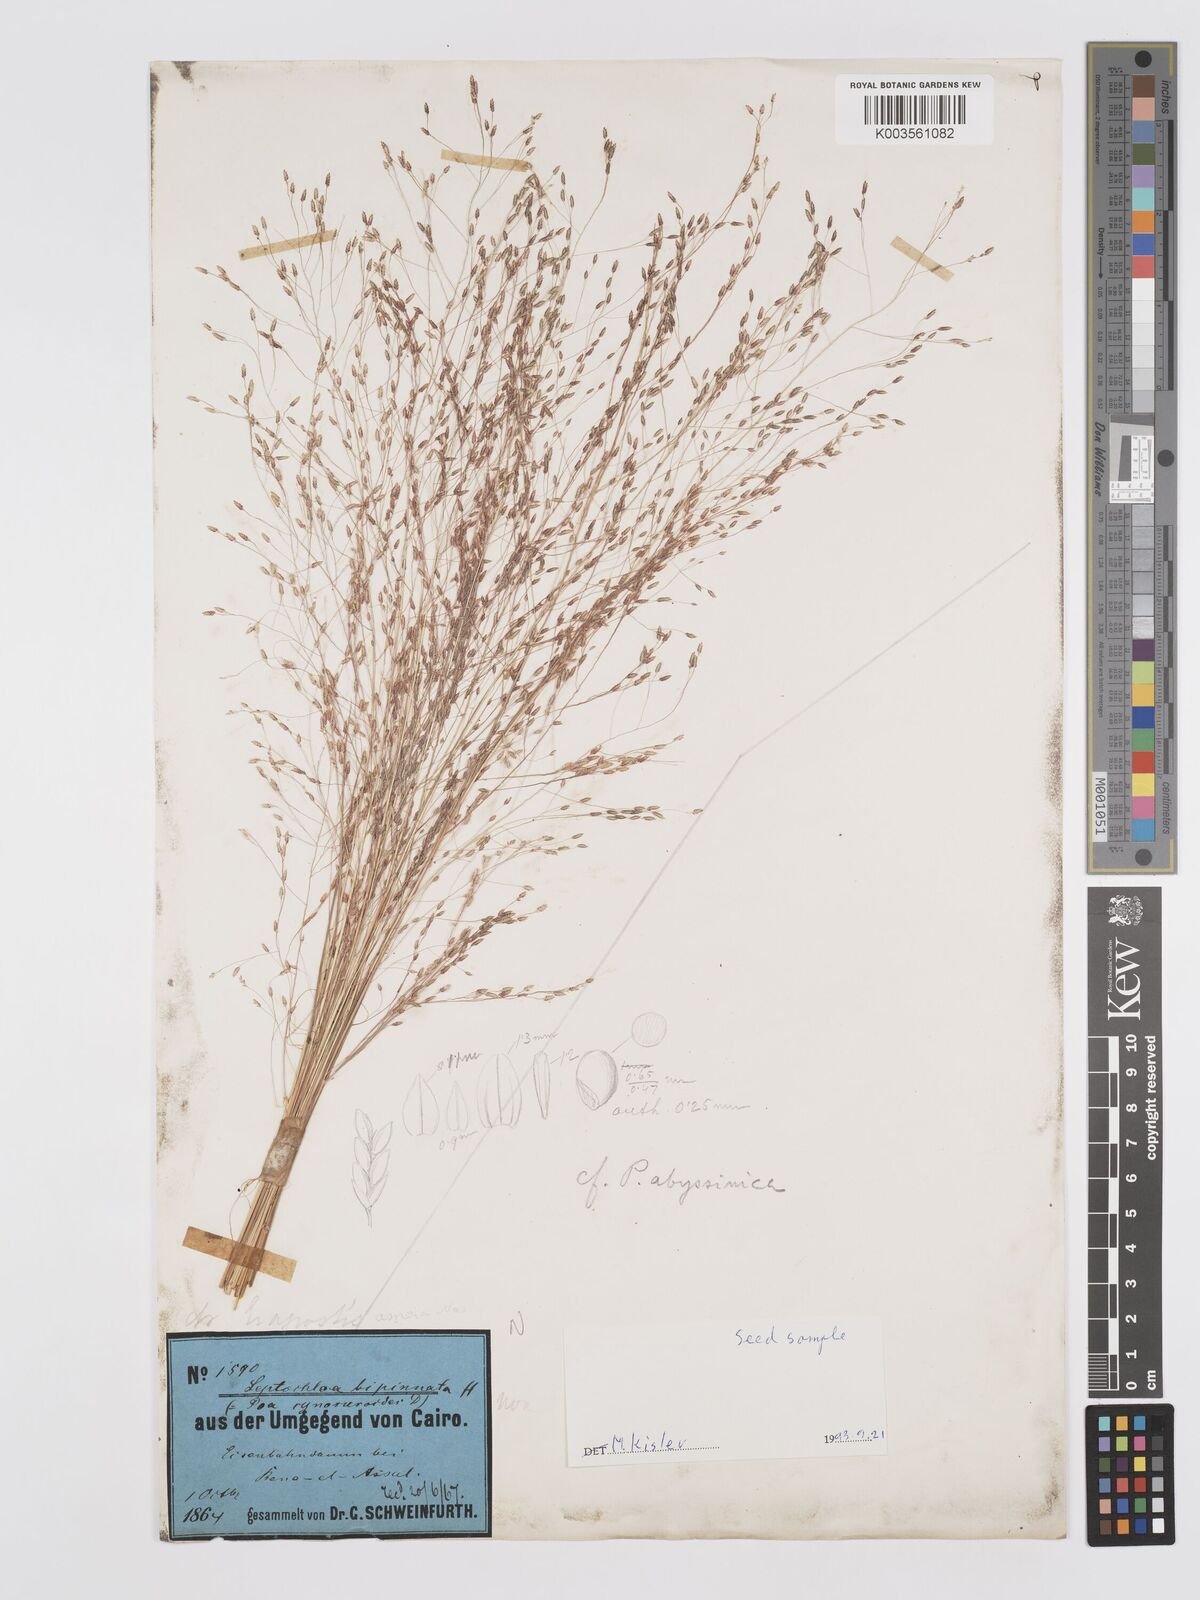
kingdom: Plantae
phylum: Tracheophyta
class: Liliopsida
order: Poales
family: Poaceae
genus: Eragrostis
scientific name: Eragrostis aspera
